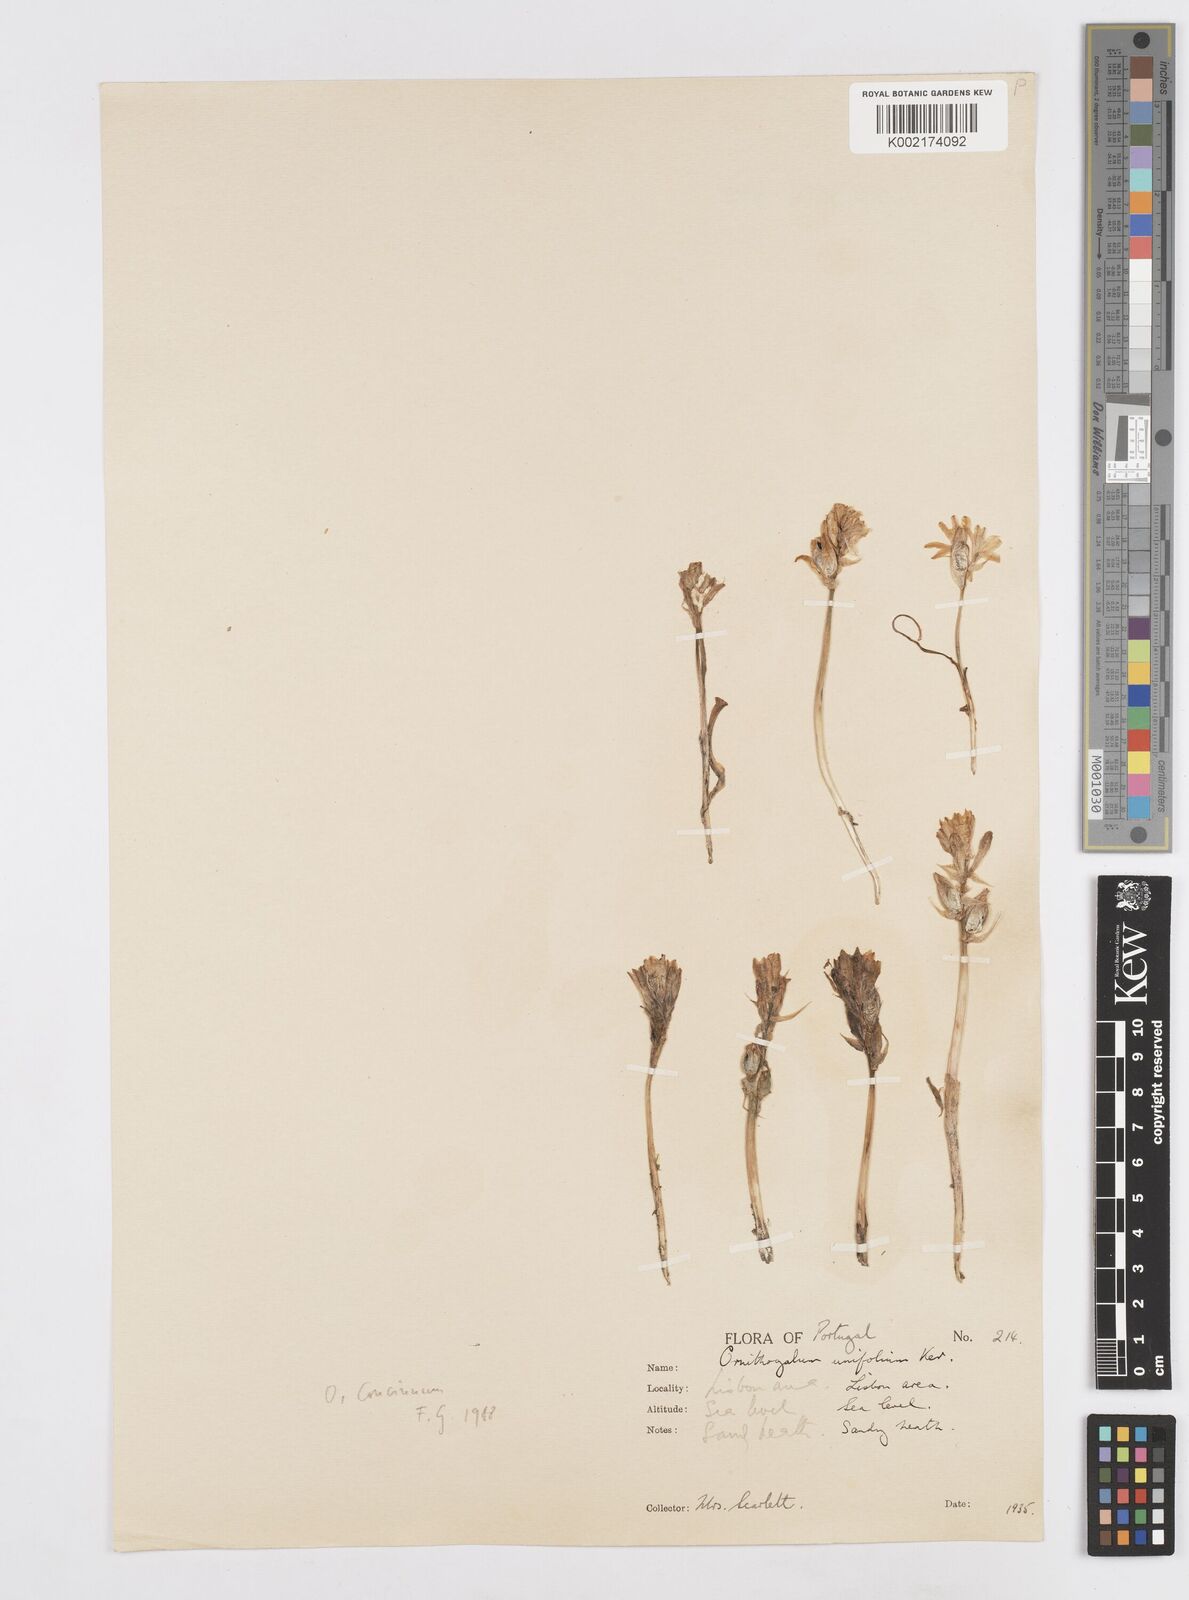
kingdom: Plantae
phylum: Tracheophyta
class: Liliopsida
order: Asparagales
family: Asparagaceae
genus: Ornithogalum
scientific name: Ornithogalum concinnum
